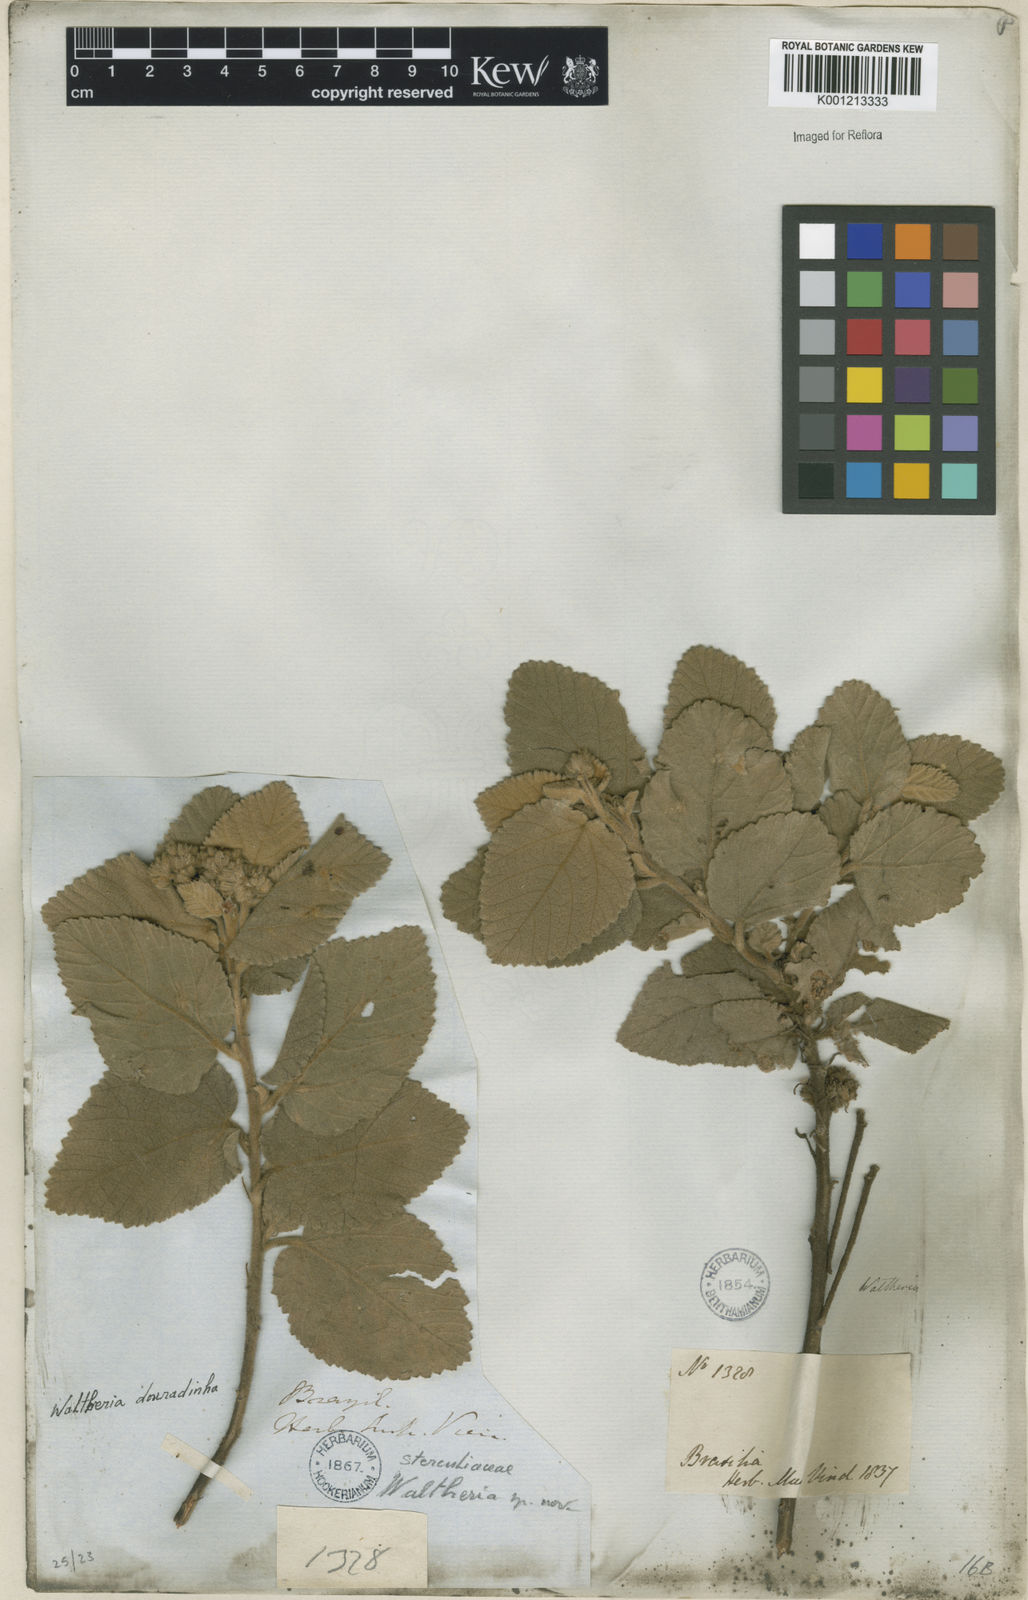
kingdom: Plantae
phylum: Tracheophyta
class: Magnoliopsida
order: Malvales
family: Malvaceae
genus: Waltheria
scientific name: Waltheria communis
